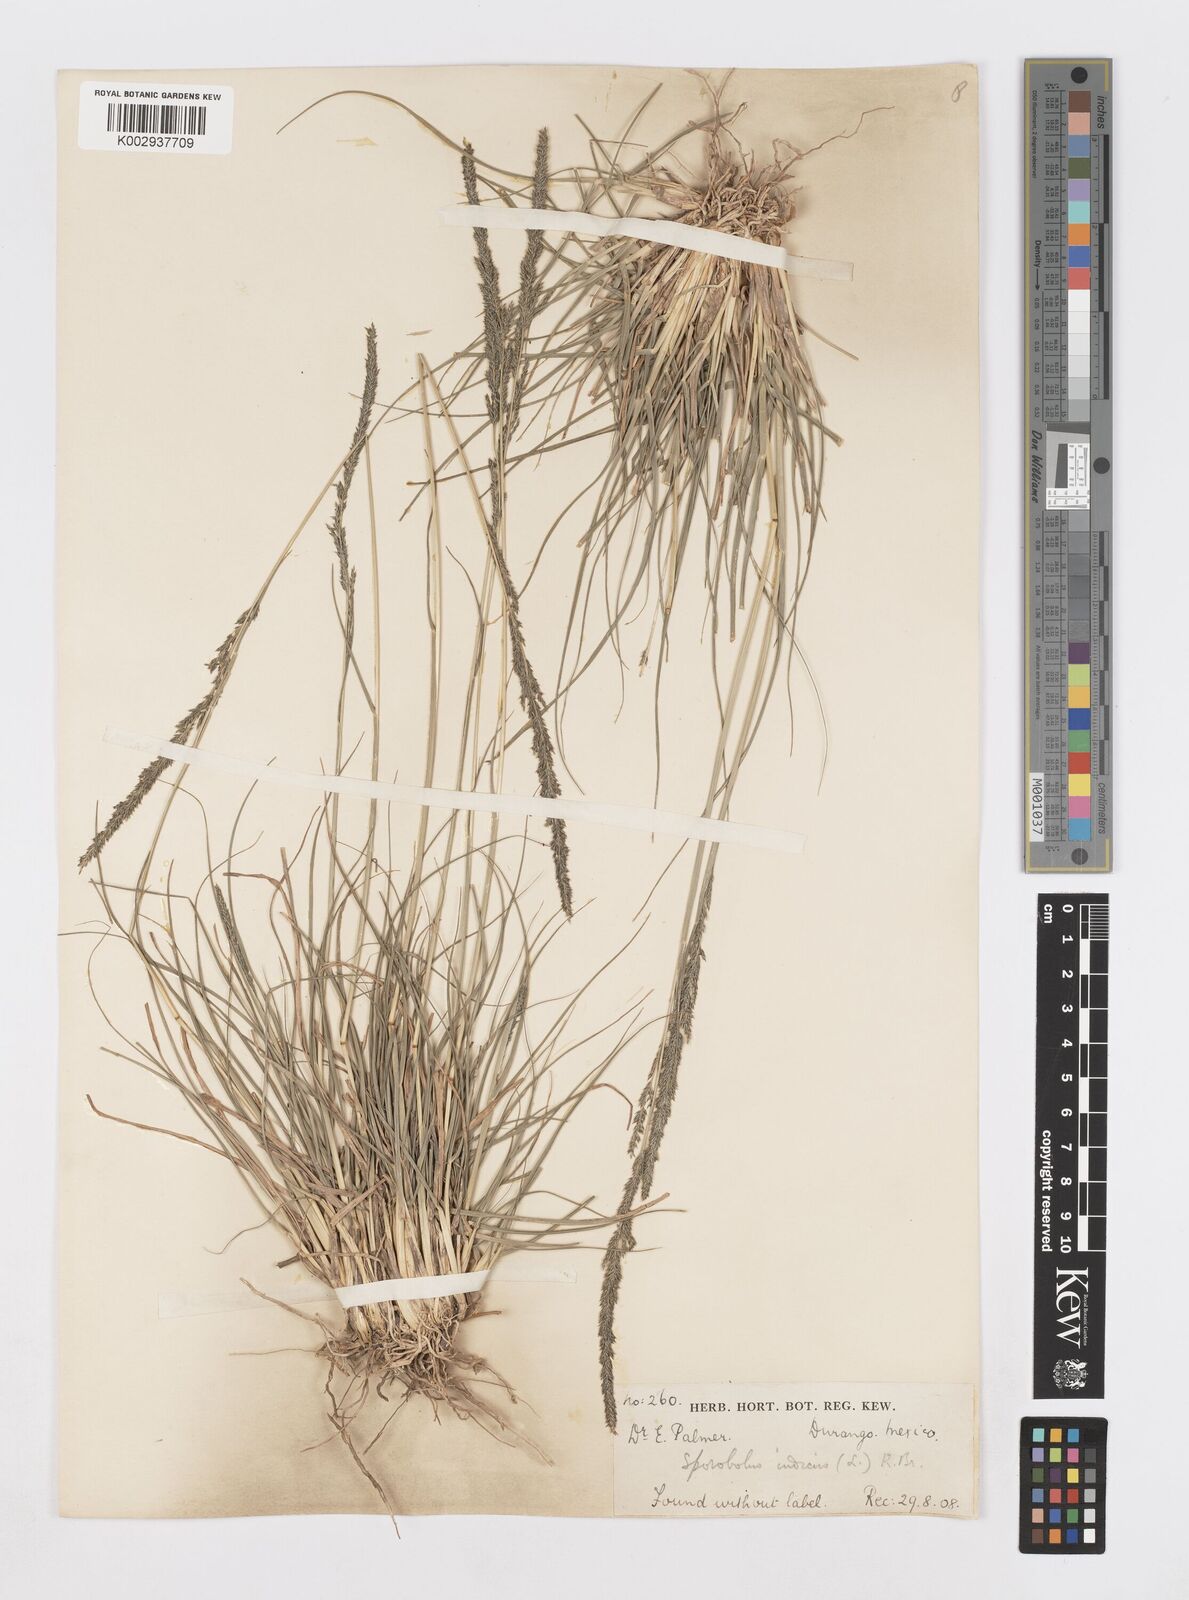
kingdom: Plantae
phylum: Tracheophyta
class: Liliopsida
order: Poales
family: Poaceae
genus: Sporobolus
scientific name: Sporobolus junceus
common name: Lizard grass
